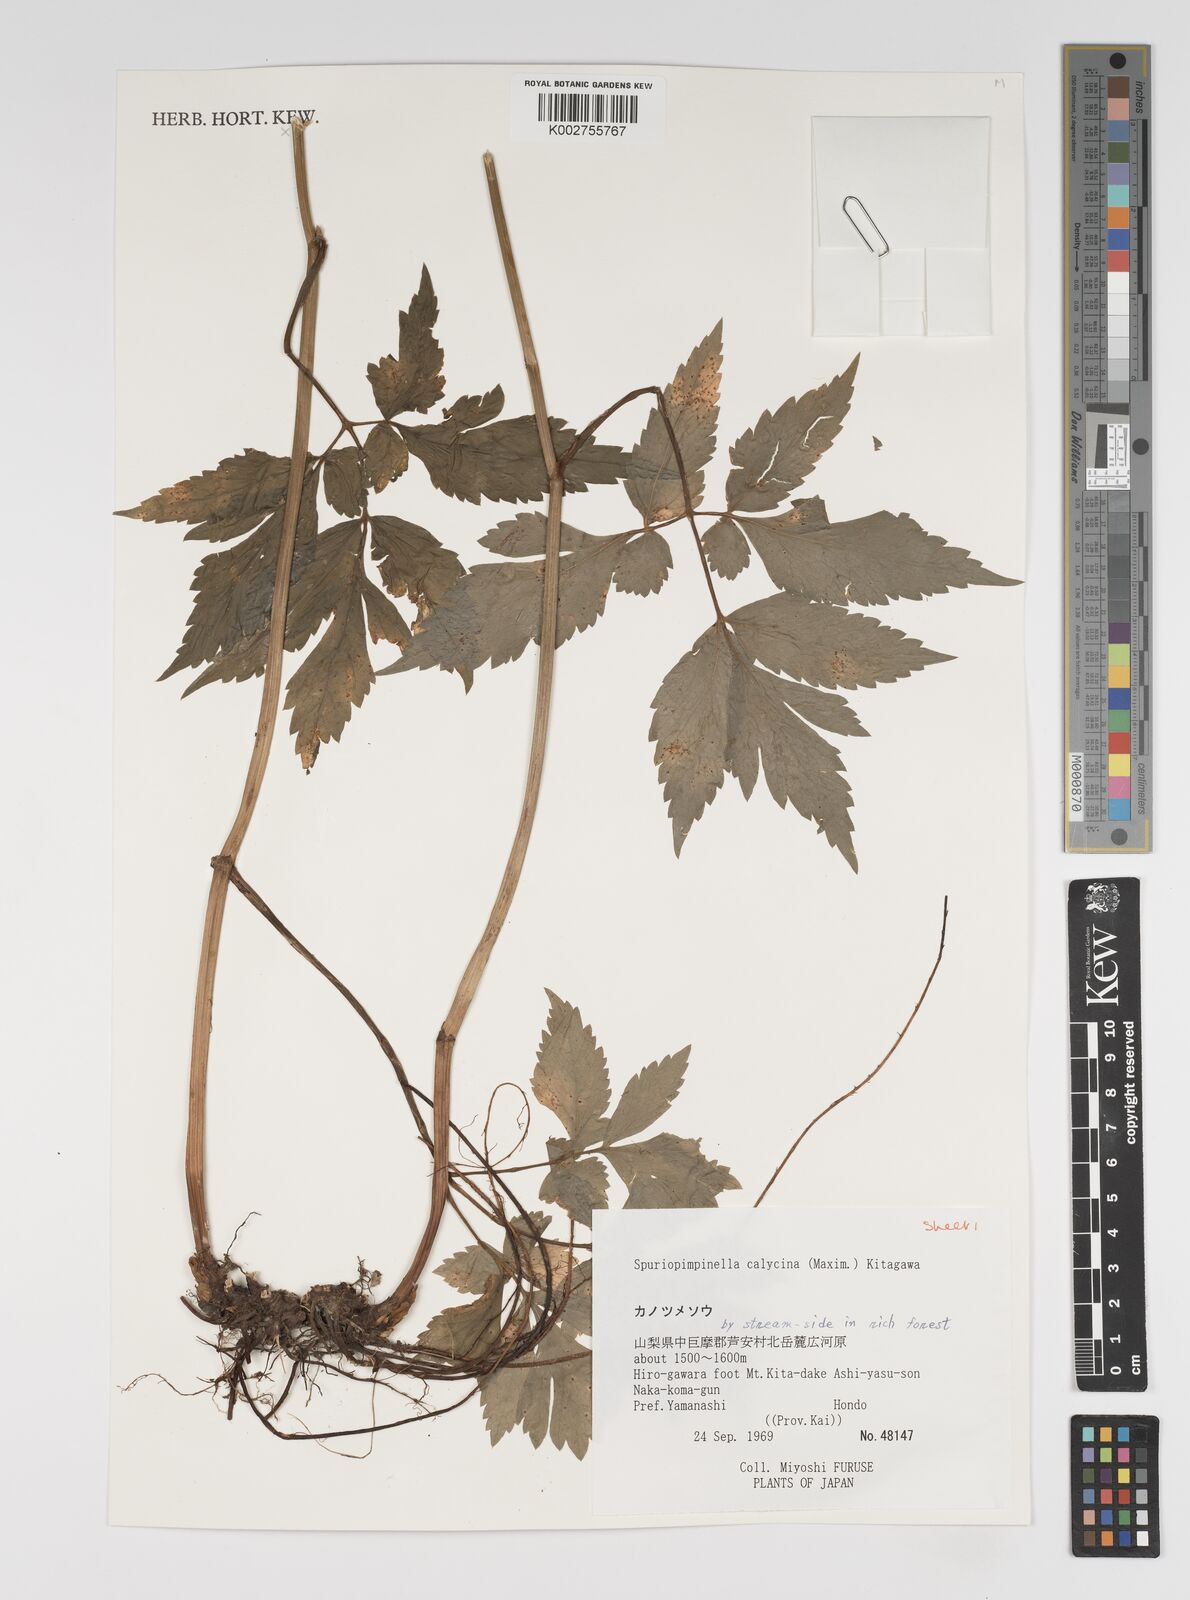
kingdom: Plantae
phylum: Tracheophyta
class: Magnoliopsida
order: Apiales
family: Apiaceae
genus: Spuriopimpinella
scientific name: Spuriopimpinella calycina
